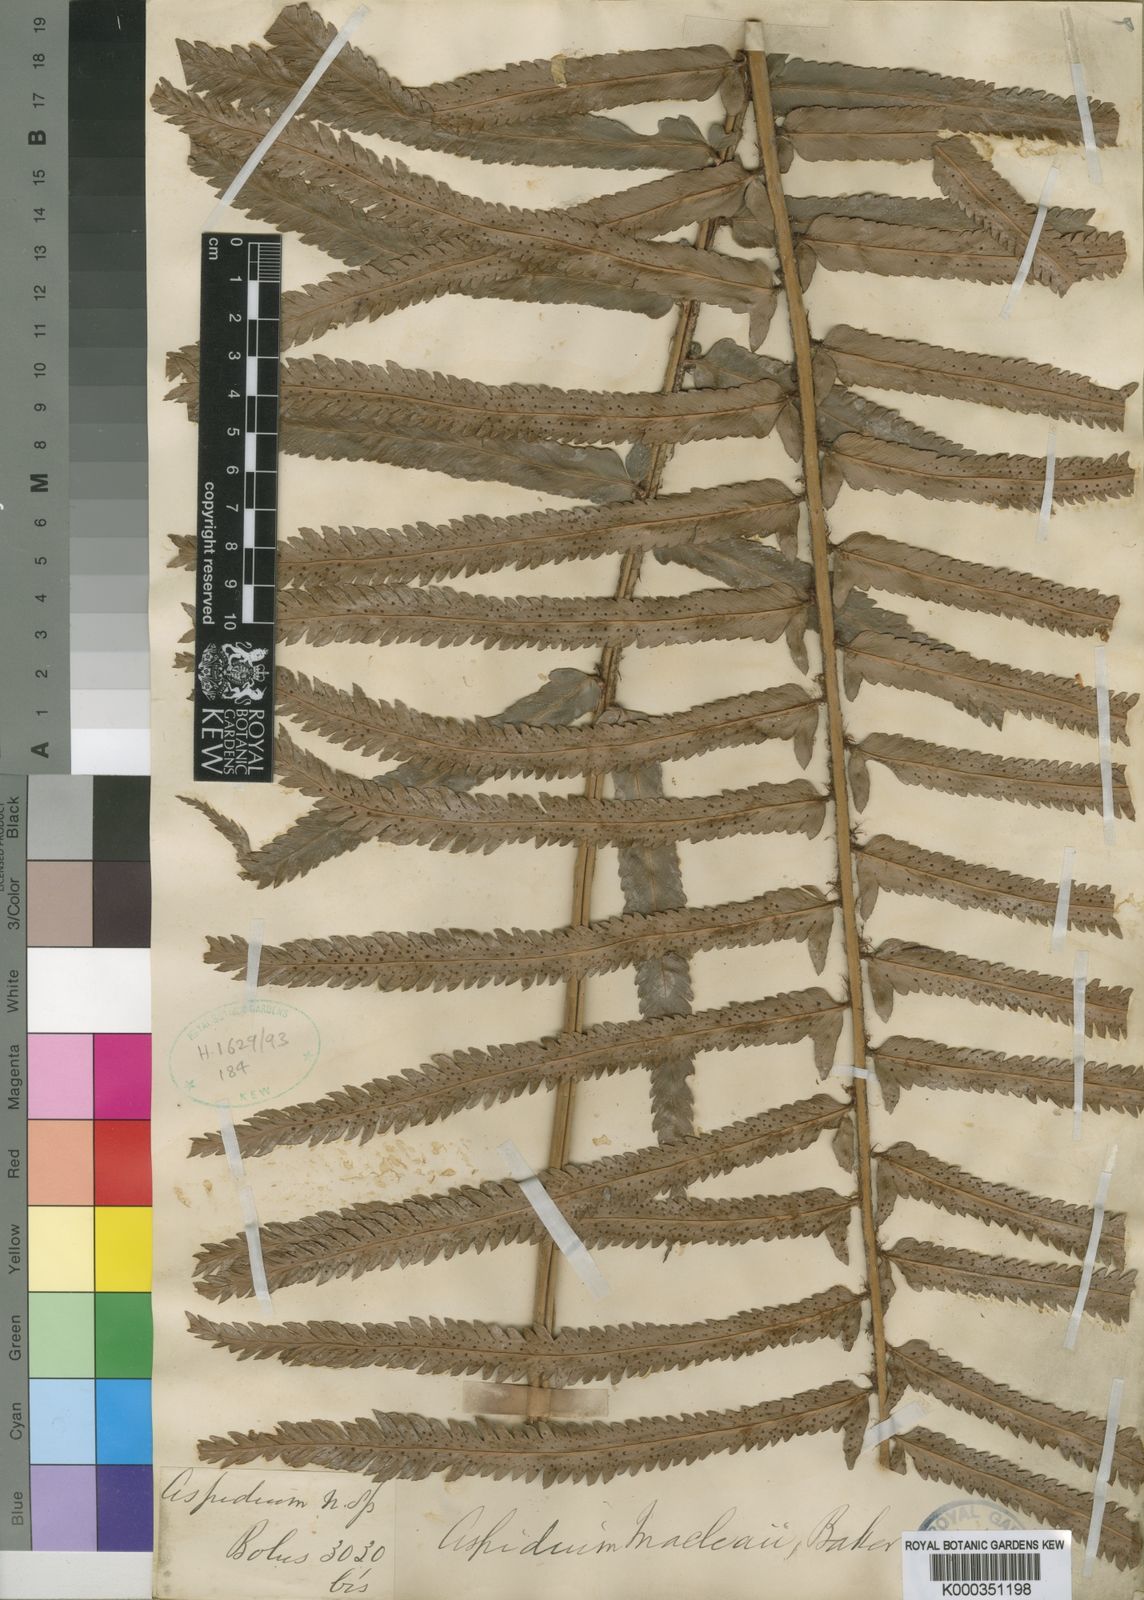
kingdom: Plantae
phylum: Tracheophyta
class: Polypodiopsida
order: Polypodiales
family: Dryopteridaceae
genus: Polystichum
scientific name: Polystichum
